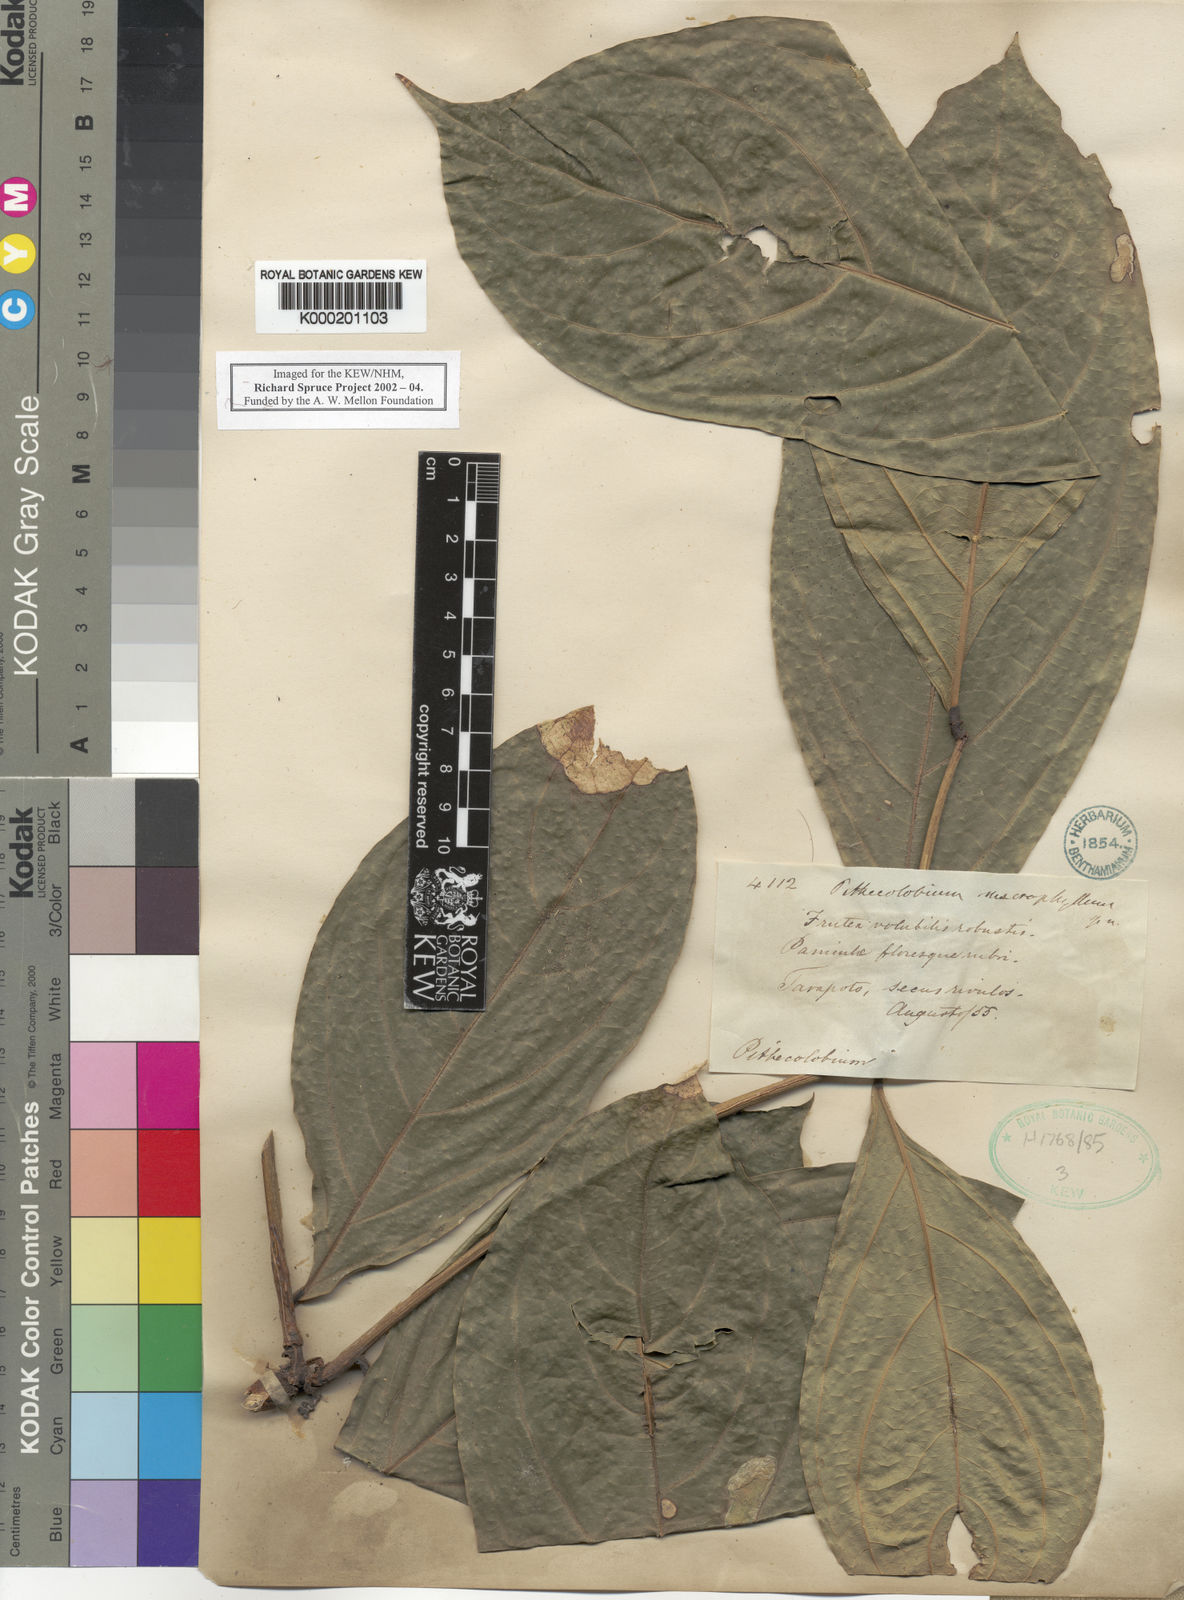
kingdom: Plantae
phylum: Tracheophyta
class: Magnoliopsida
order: Fabales
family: Fabaceae
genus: Zygia
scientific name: Zygia coccinea
